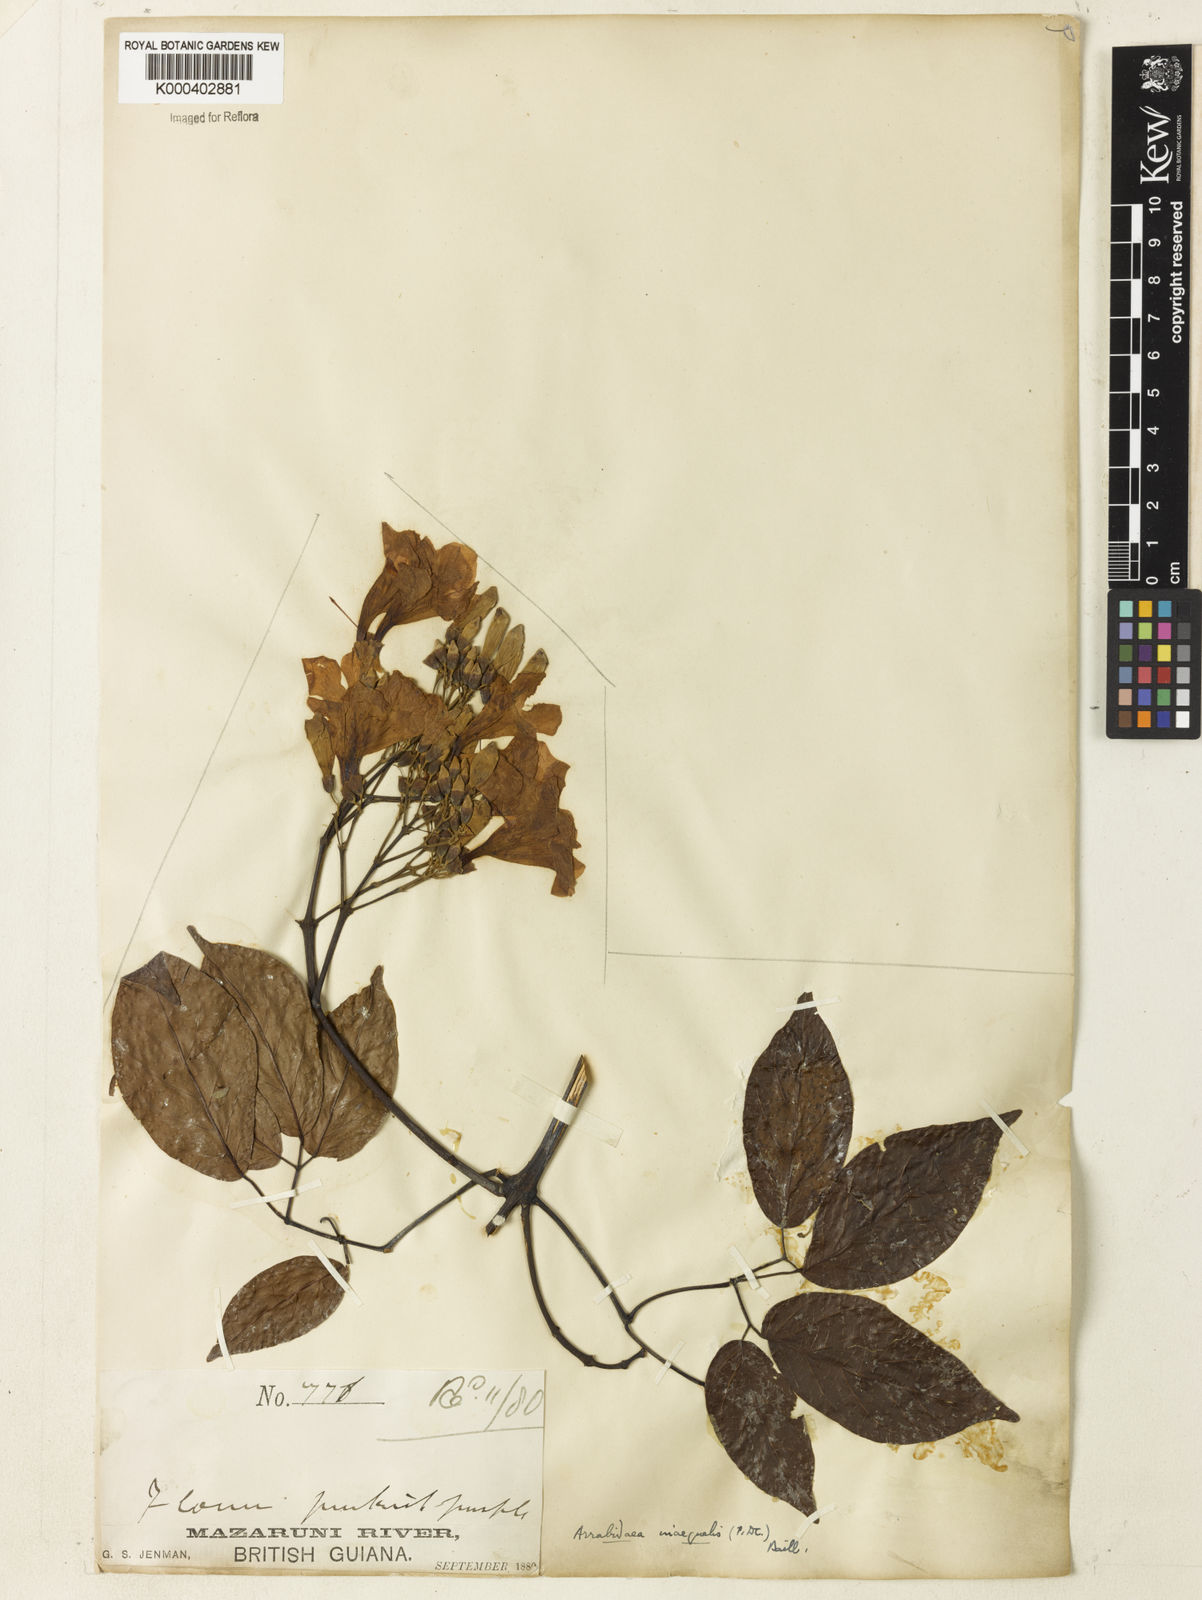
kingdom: Plantae
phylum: Tracheophyta
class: Magnoliopsida
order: Lamiales
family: Bignoniaceae
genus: Cuspidaria
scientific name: Cuspidaria inaequalis
